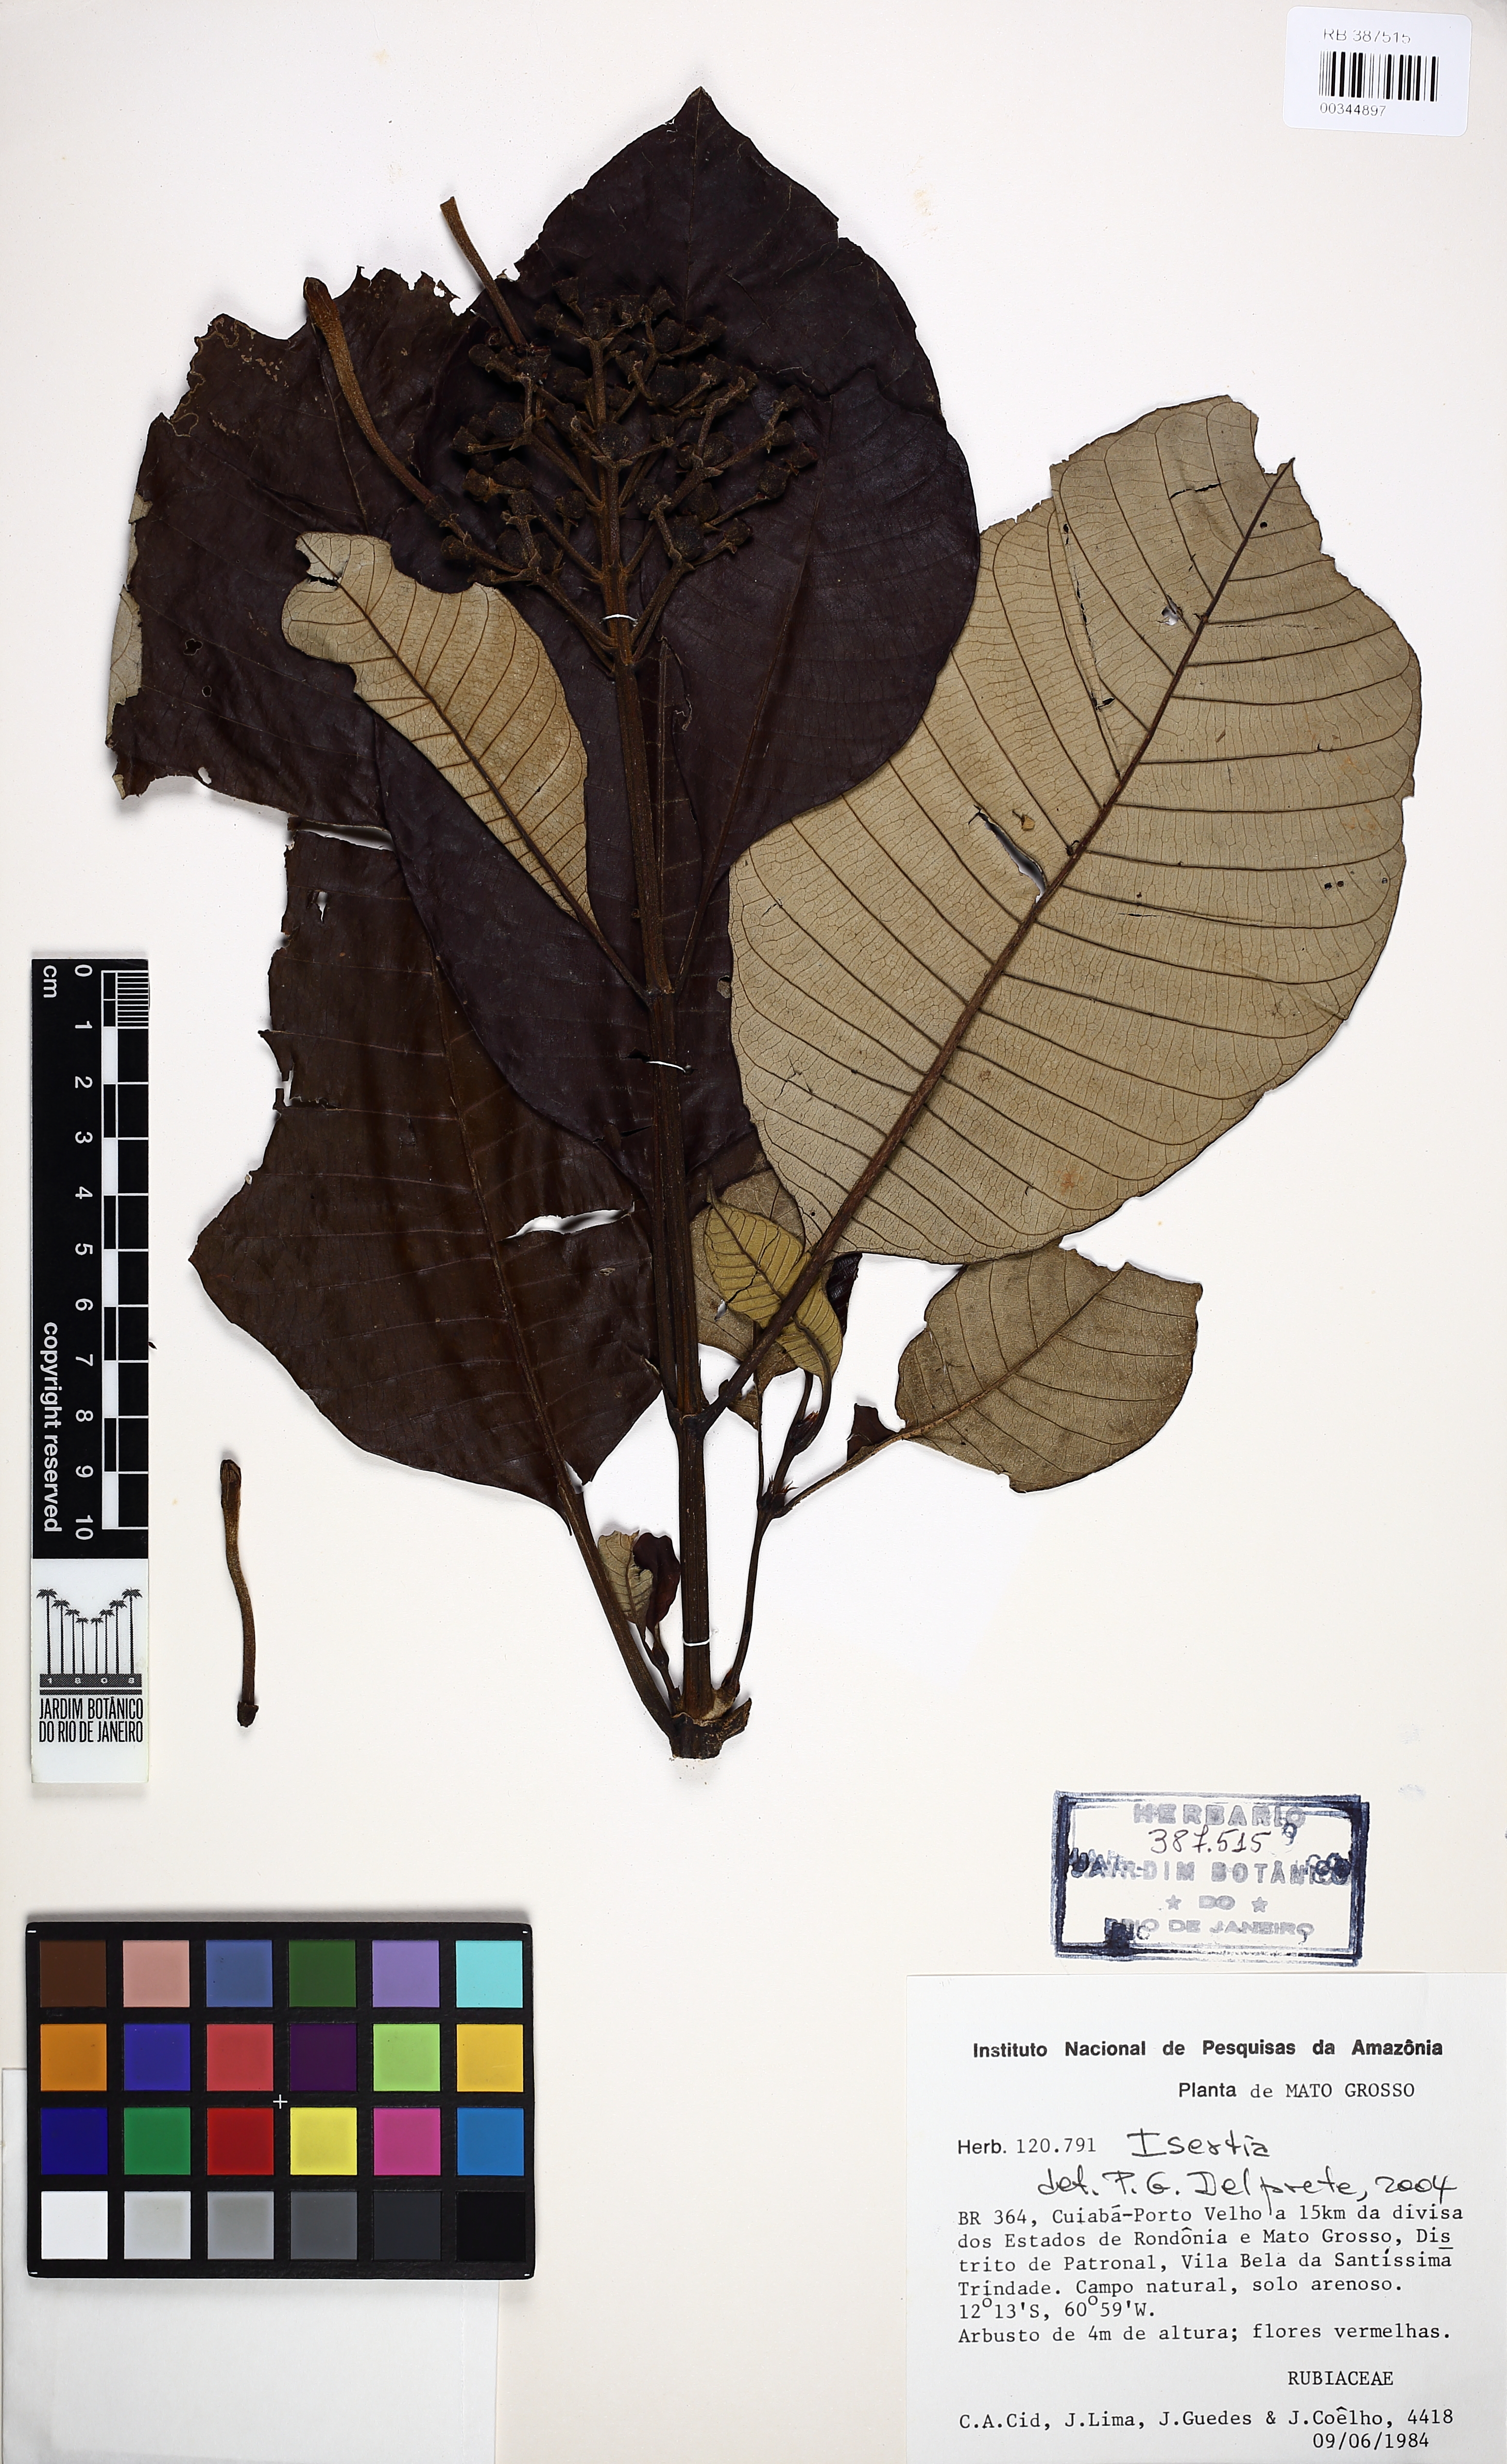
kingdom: Plantae
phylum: Tracheophyta
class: Magnoliopsida
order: Gentianales
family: Rubiaceae
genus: Isertia
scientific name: Isertia hypoleuca
